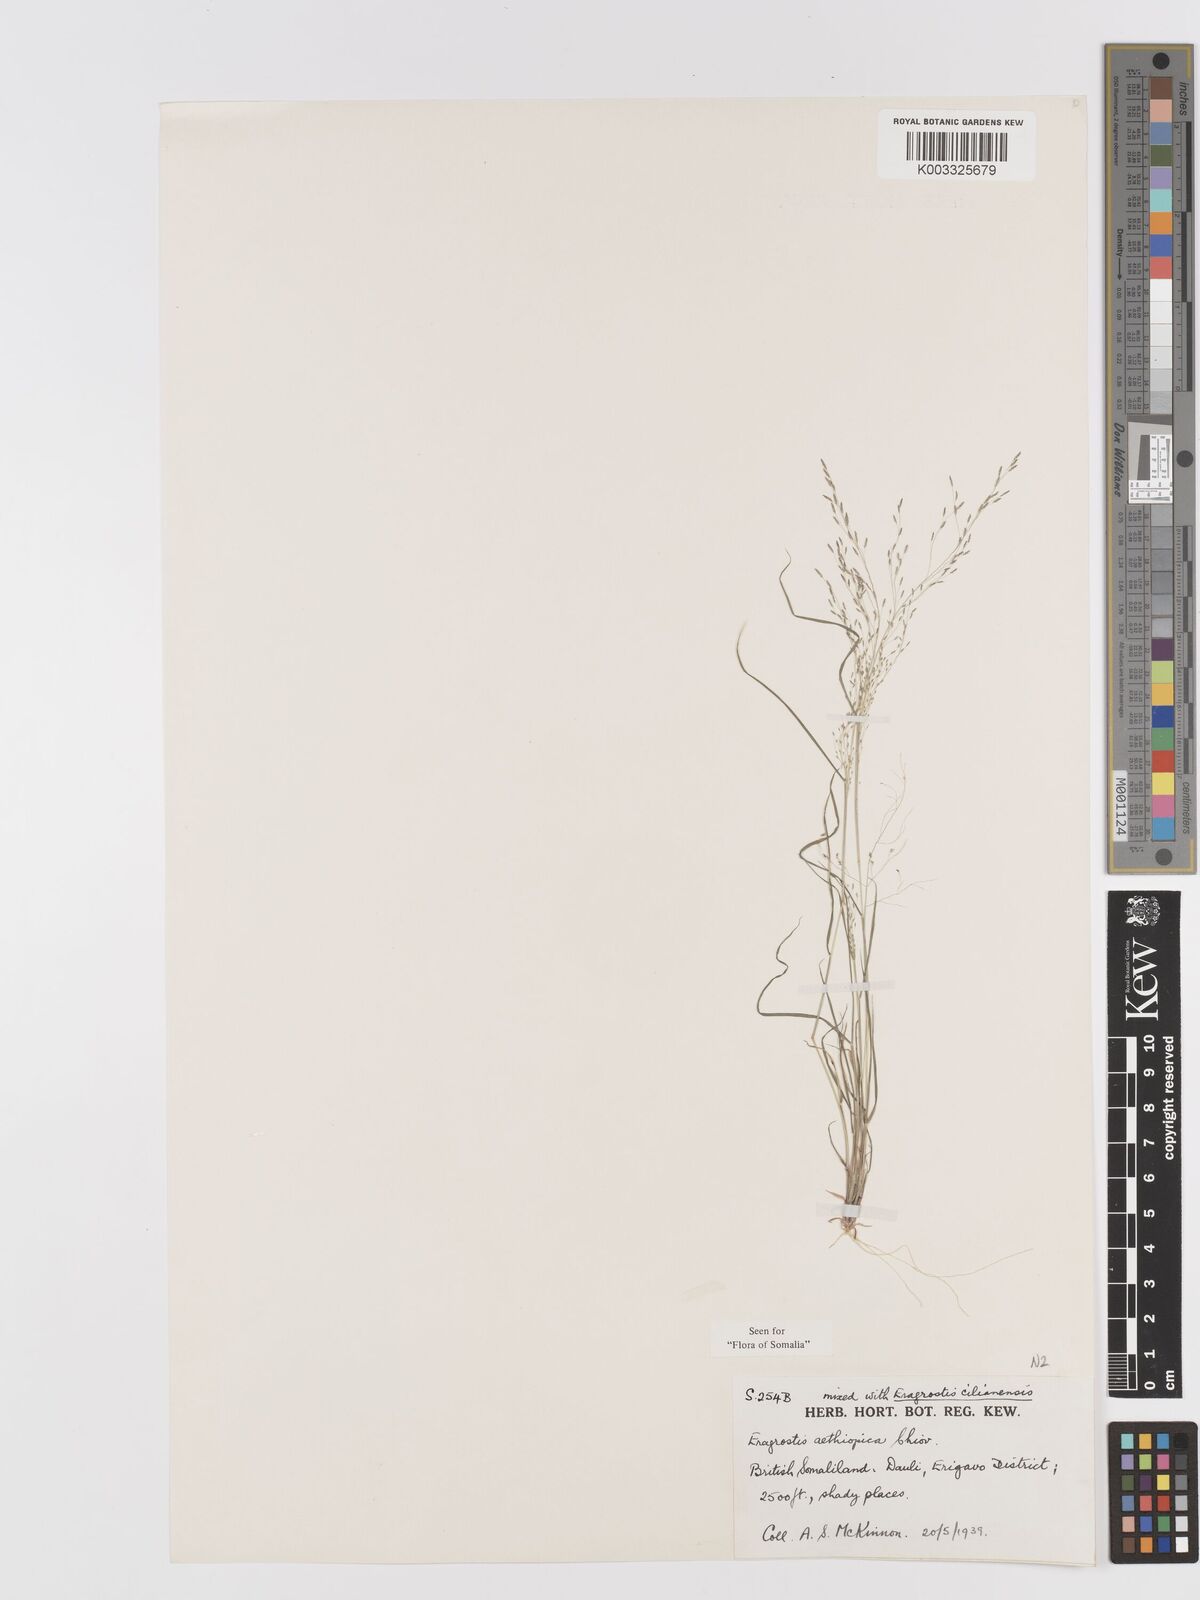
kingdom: Plantae
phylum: Tracheophyta
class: Liliopsida
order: Poales
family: Poaceae
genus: Eragrostis
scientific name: Eragrostis aethiopica
